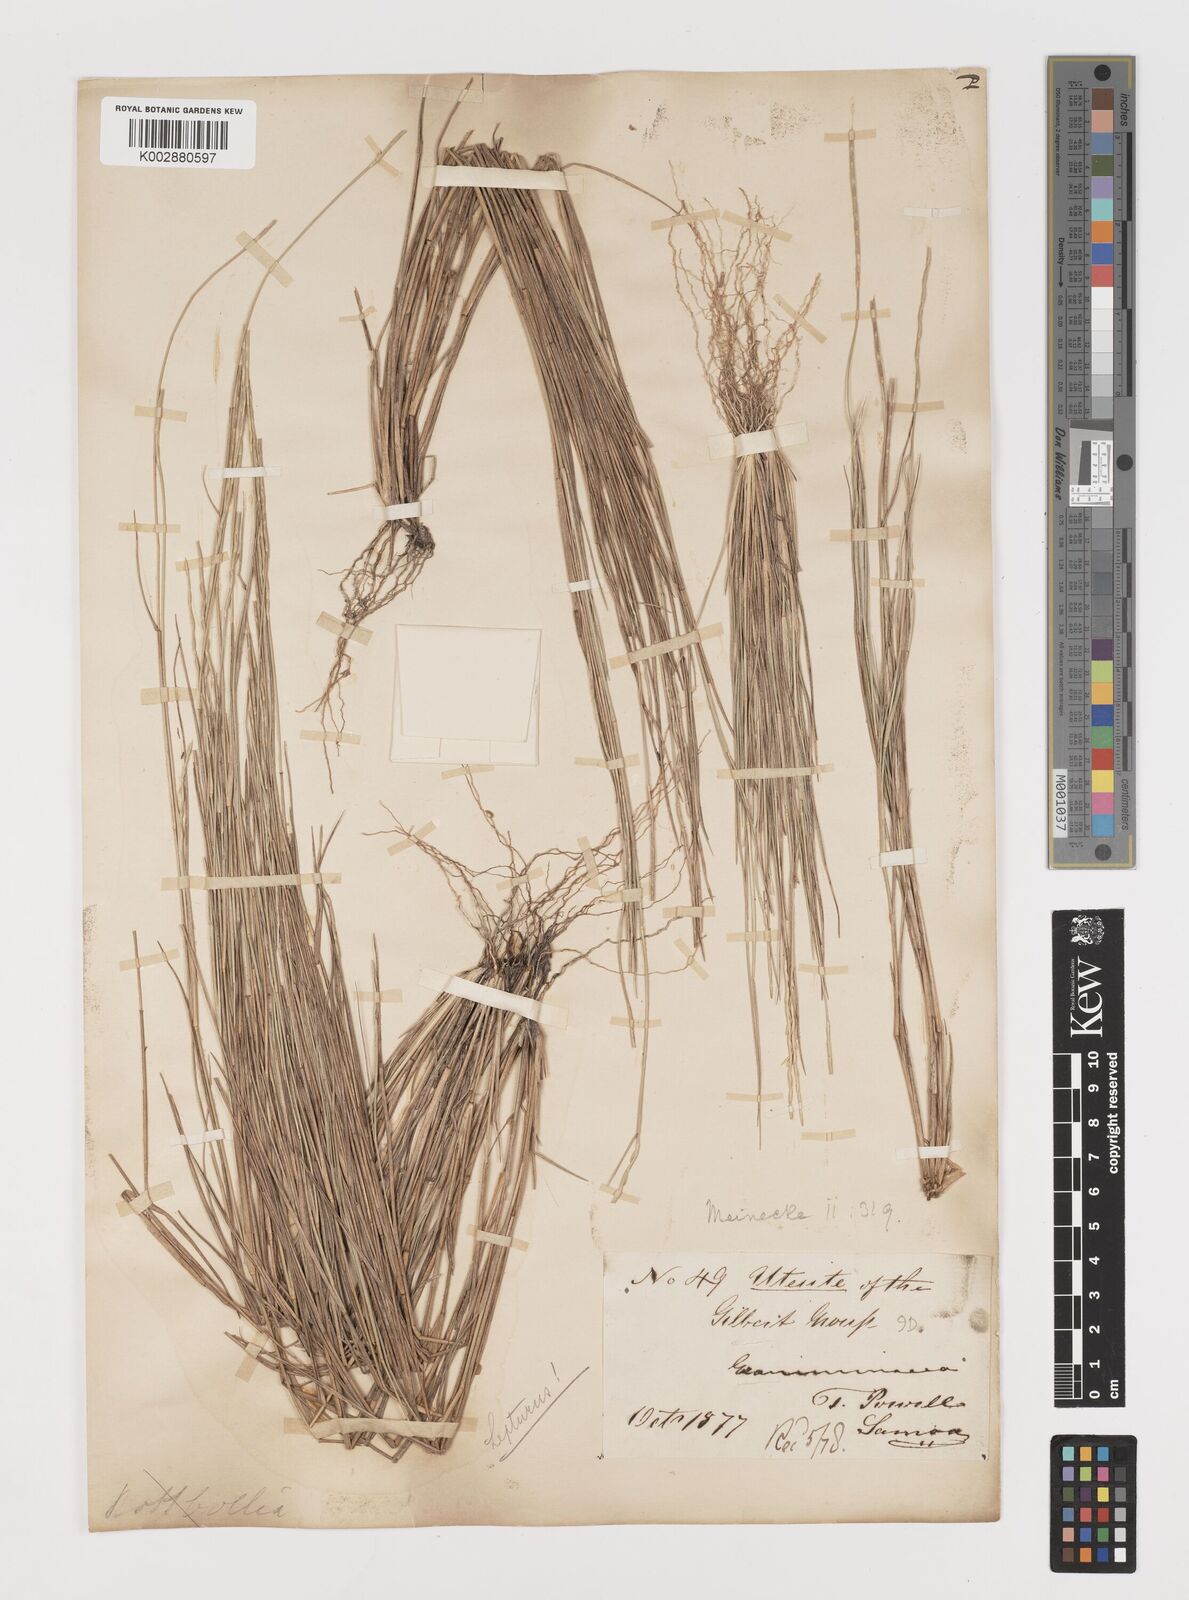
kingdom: Plantae
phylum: Tracheophyta
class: Liliopsida
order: Poales
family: Poaceae
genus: Lepturus
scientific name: Lepturus repens
